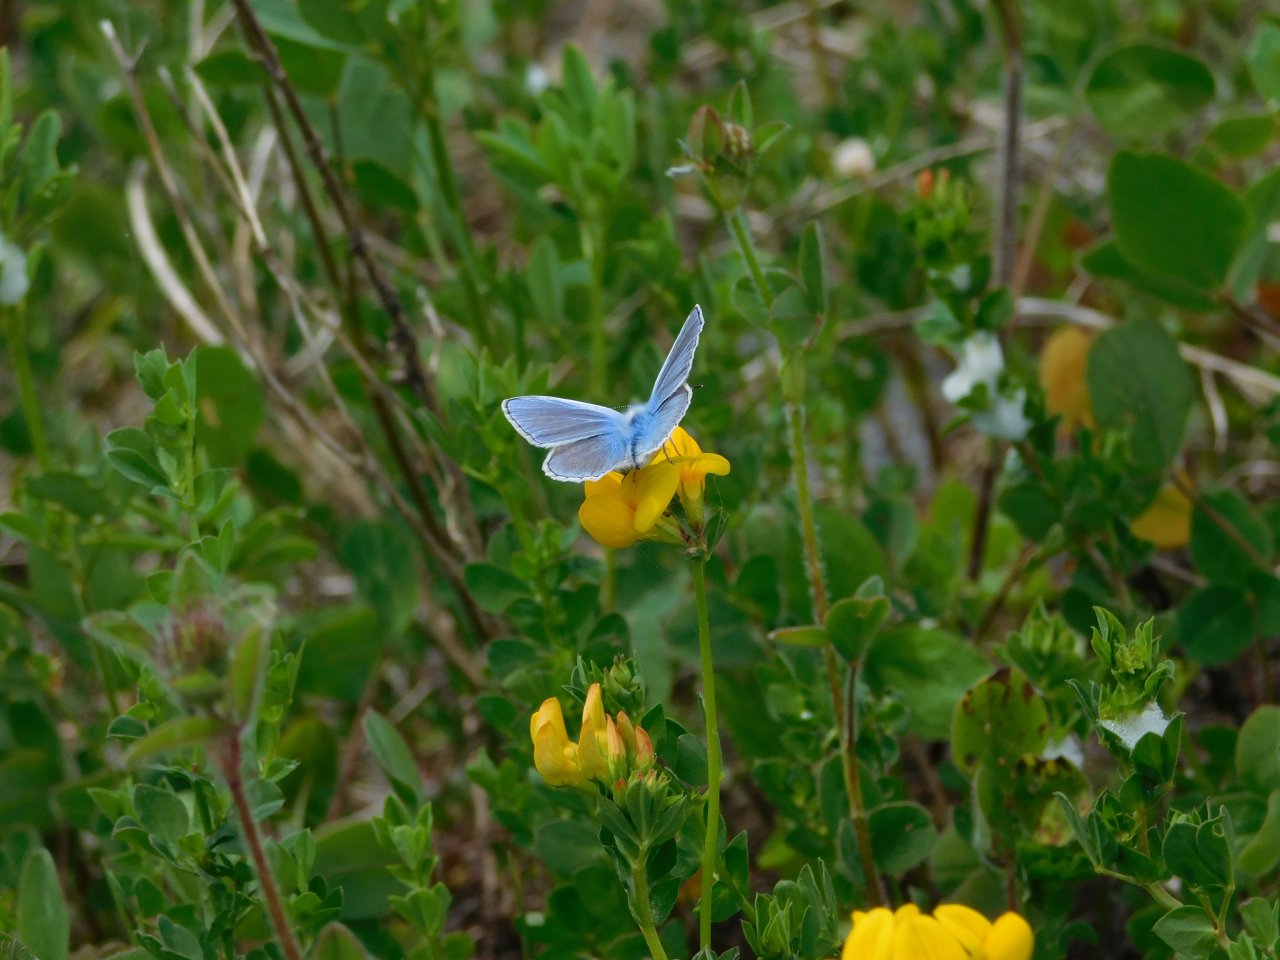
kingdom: Animalia
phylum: Arthropoda
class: Insecta
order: Lepidoptera
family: Lycaenidae
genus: Polyommatus
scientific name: Polyommatus icarus
